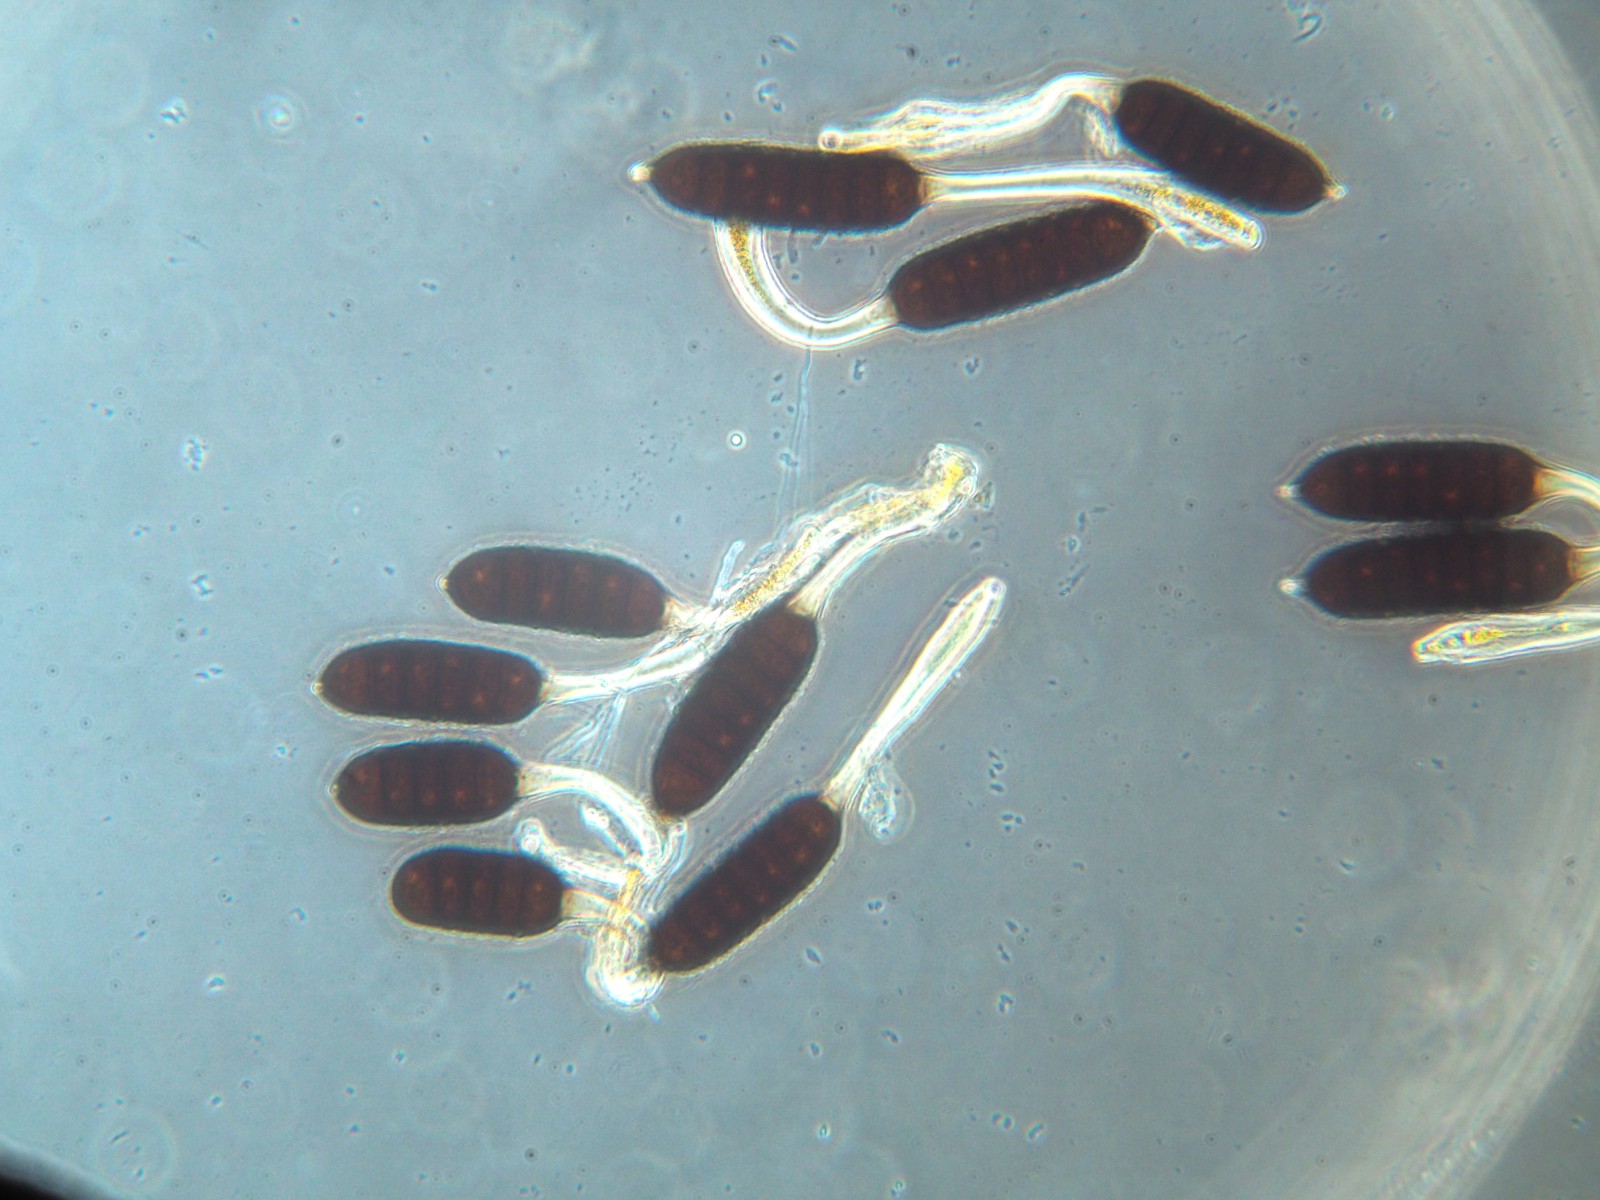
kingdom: Fungi
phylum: Basidiomycota
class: Pucciniomycetes
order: Pucciniales
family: Phragmidiaceae
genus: Phragmidium
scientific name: Phragmidium rubi-idaei
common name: hindbær-flercellerust
